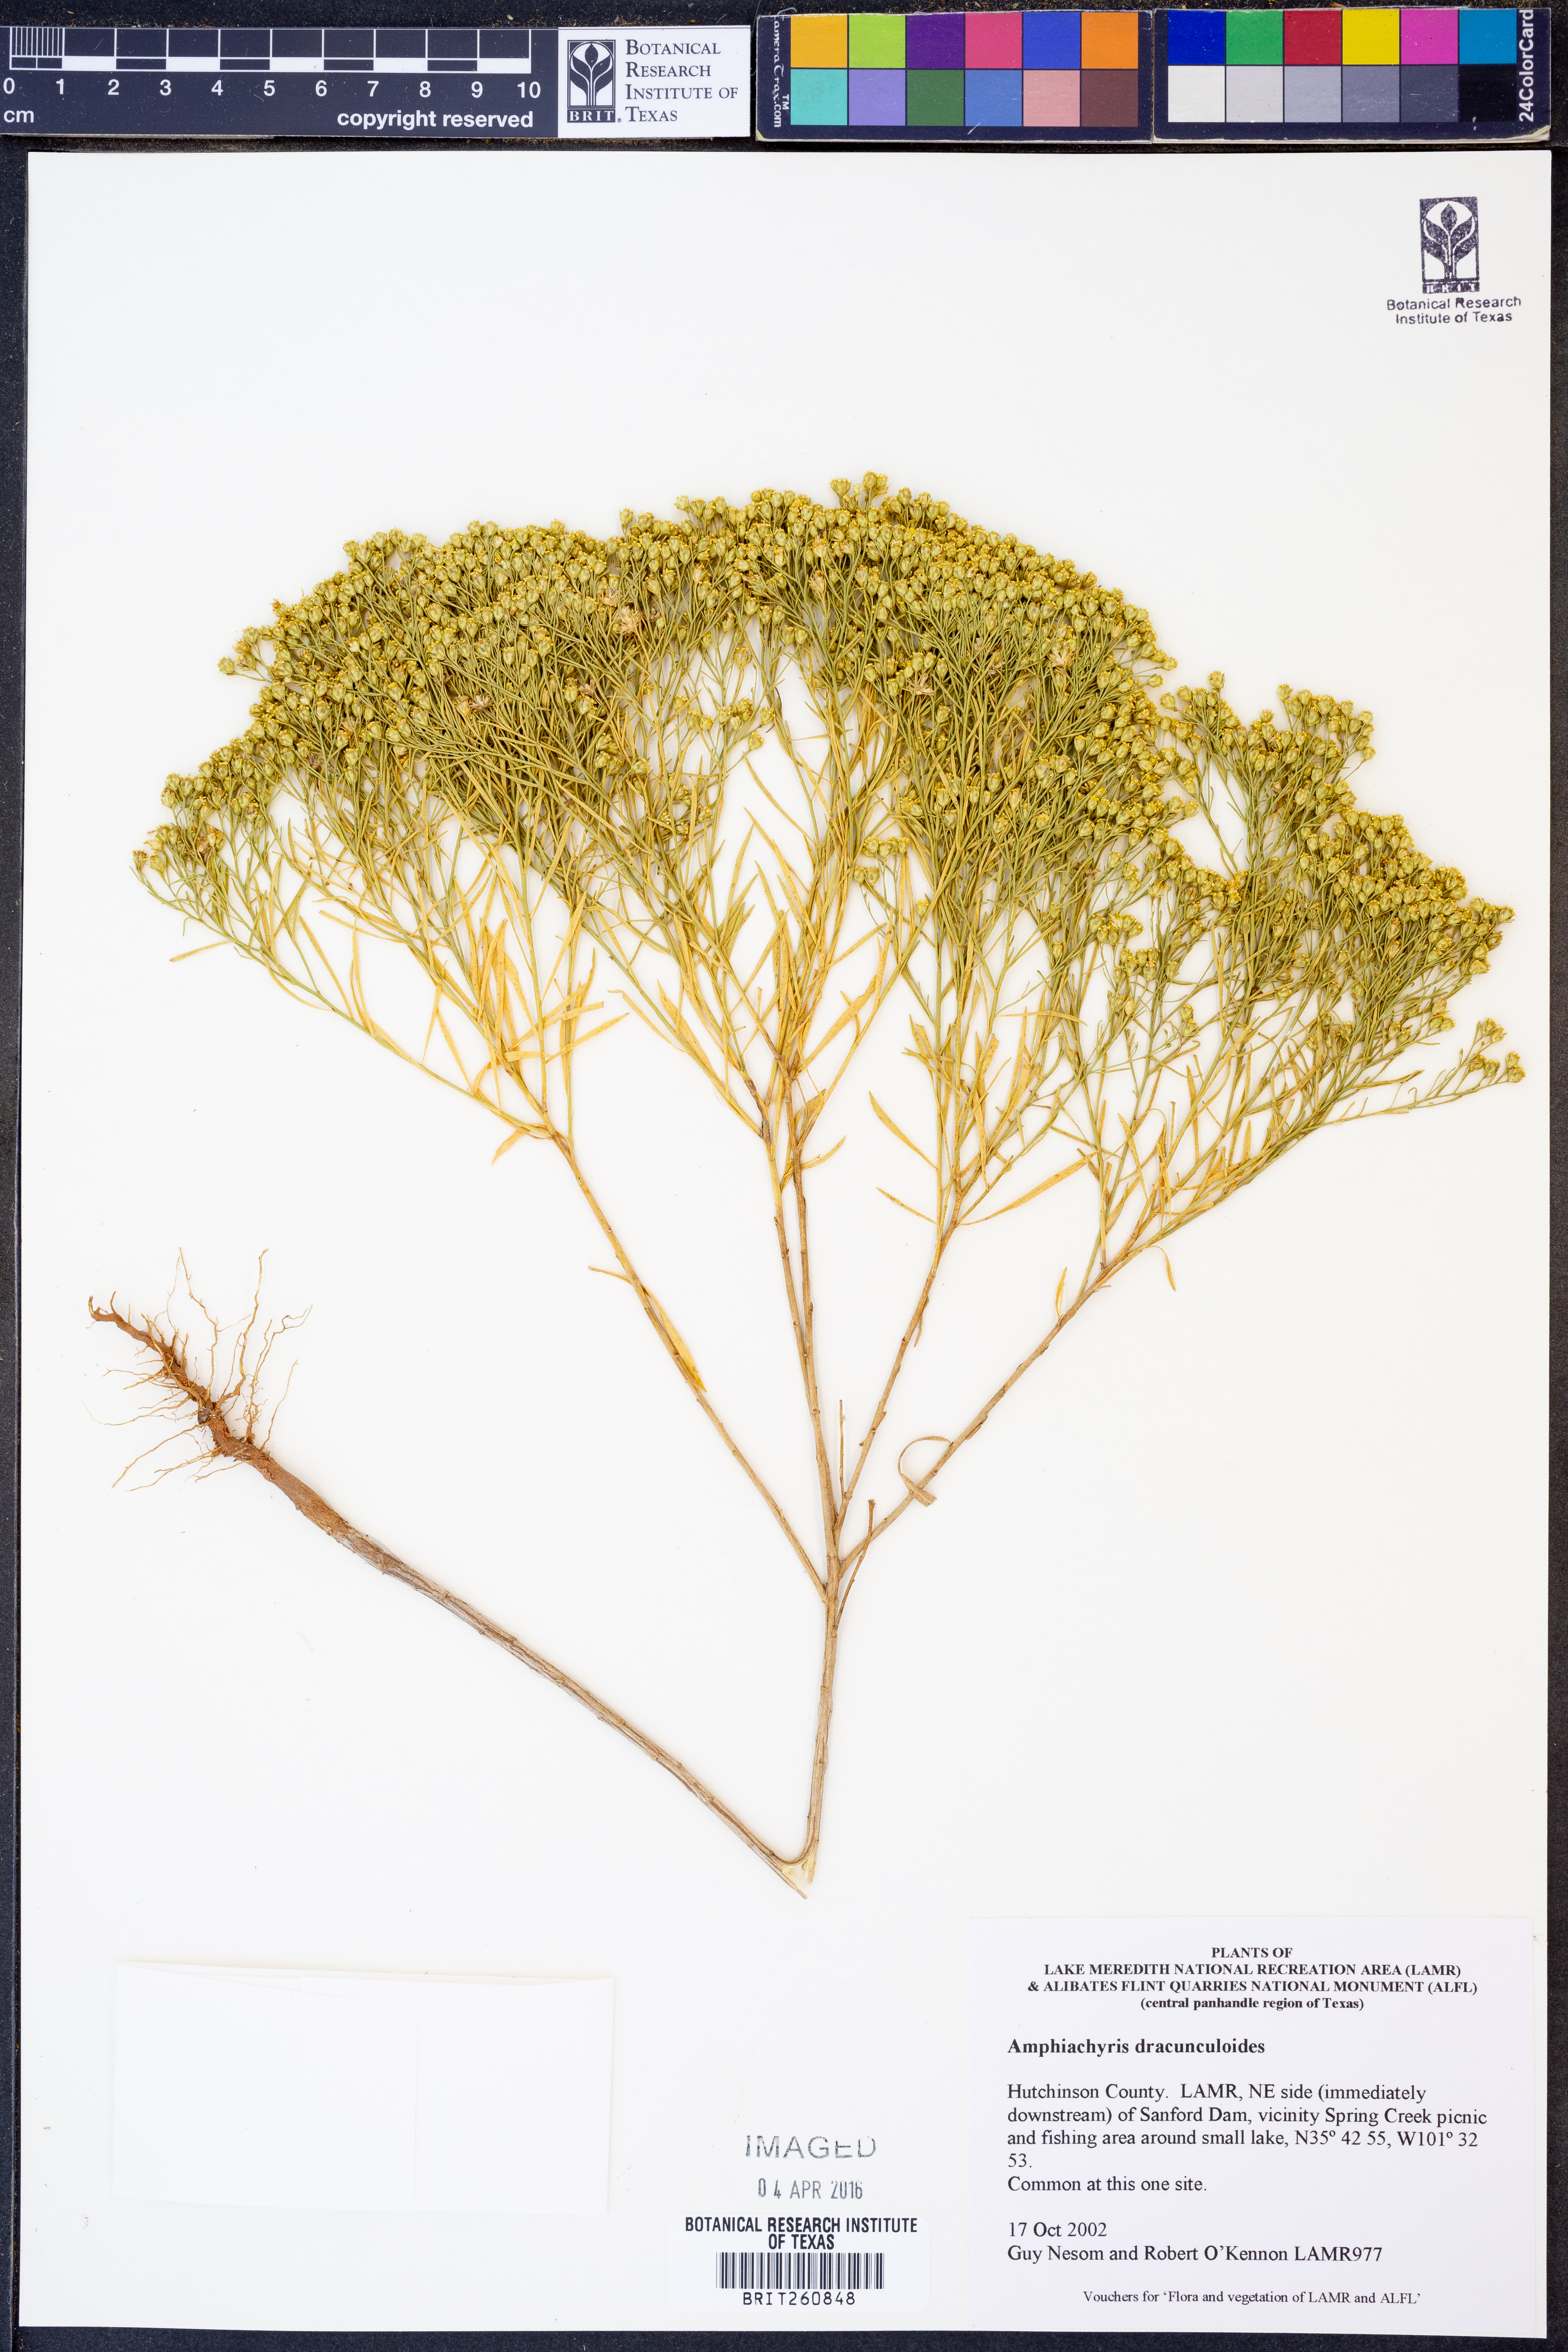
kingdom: Plantae
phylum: Tracheophyta
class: Magnoliopsida
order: Asterales
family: Asteraceae
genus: Amphiachyris
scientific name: Amphiachyris dracunculoides
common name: Broomweed
